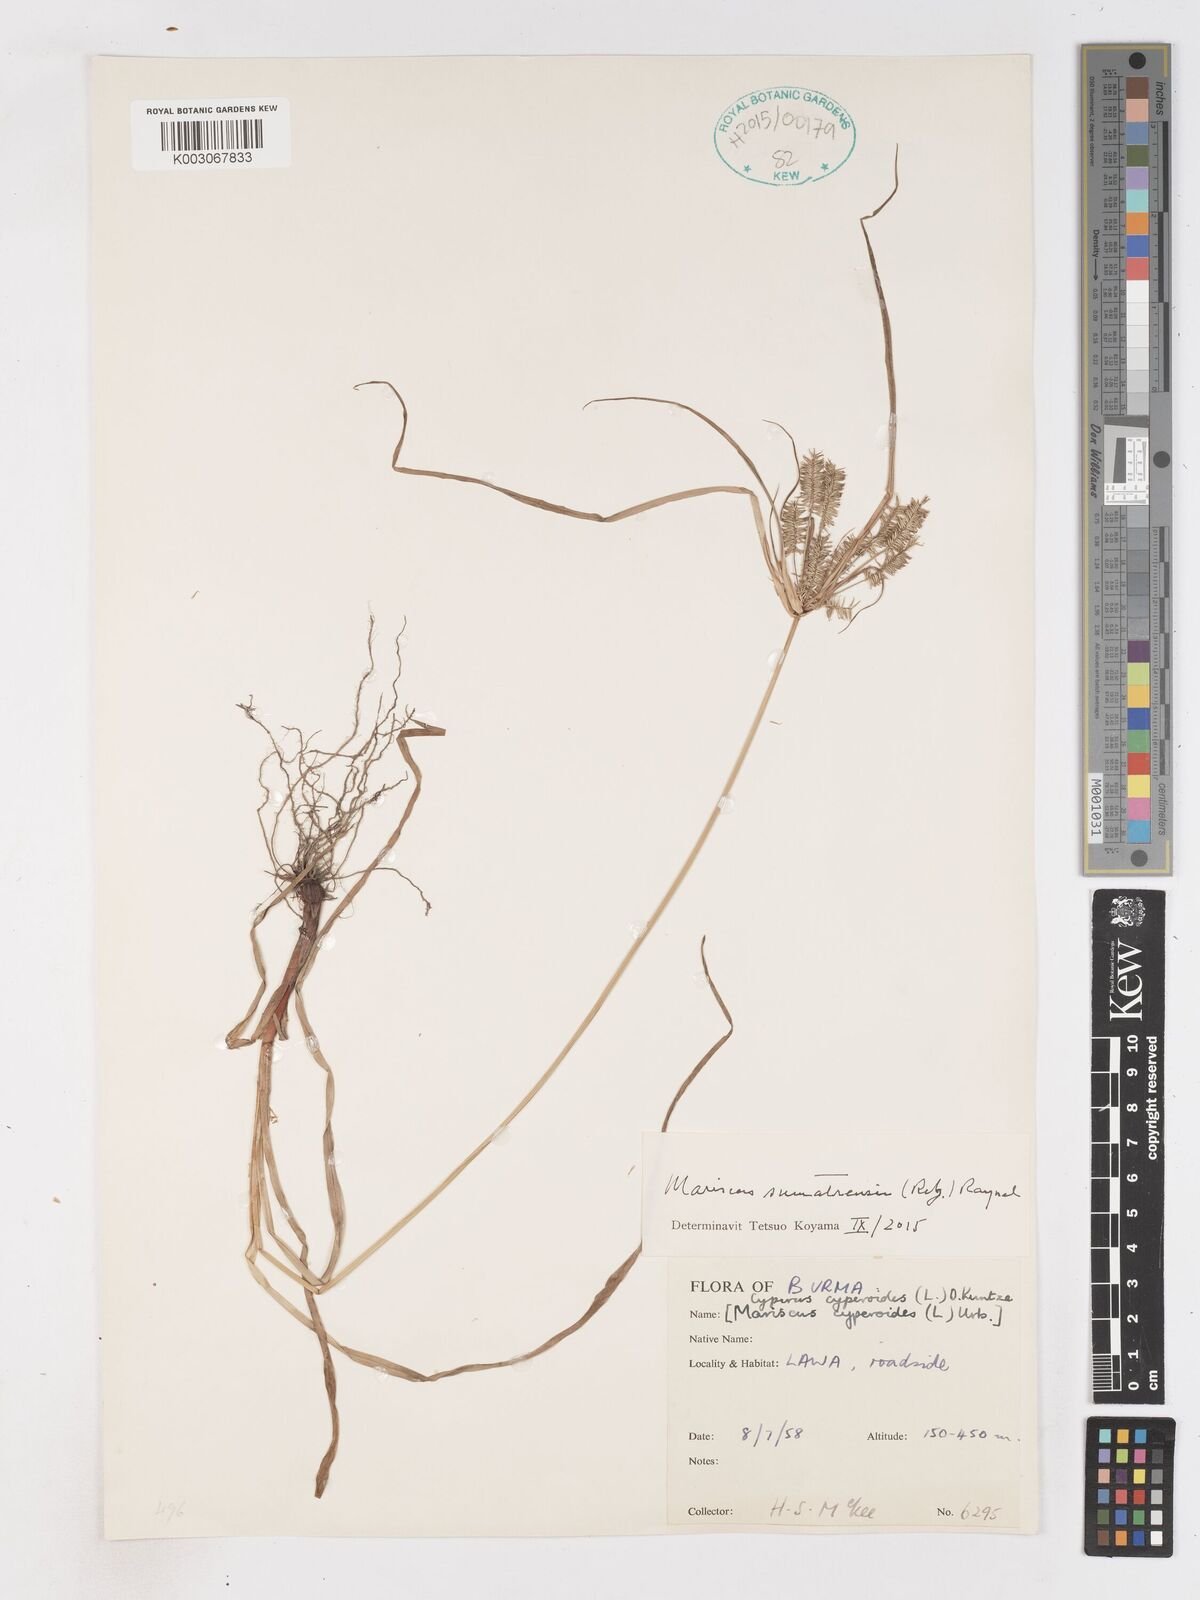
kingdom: Plantae
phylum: Tracheophyta
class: Liliopsida
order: Poales
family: Cyperaceae
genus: Cyperus
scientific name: Cyperus cyperoides
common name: Pacific island flat sedge
